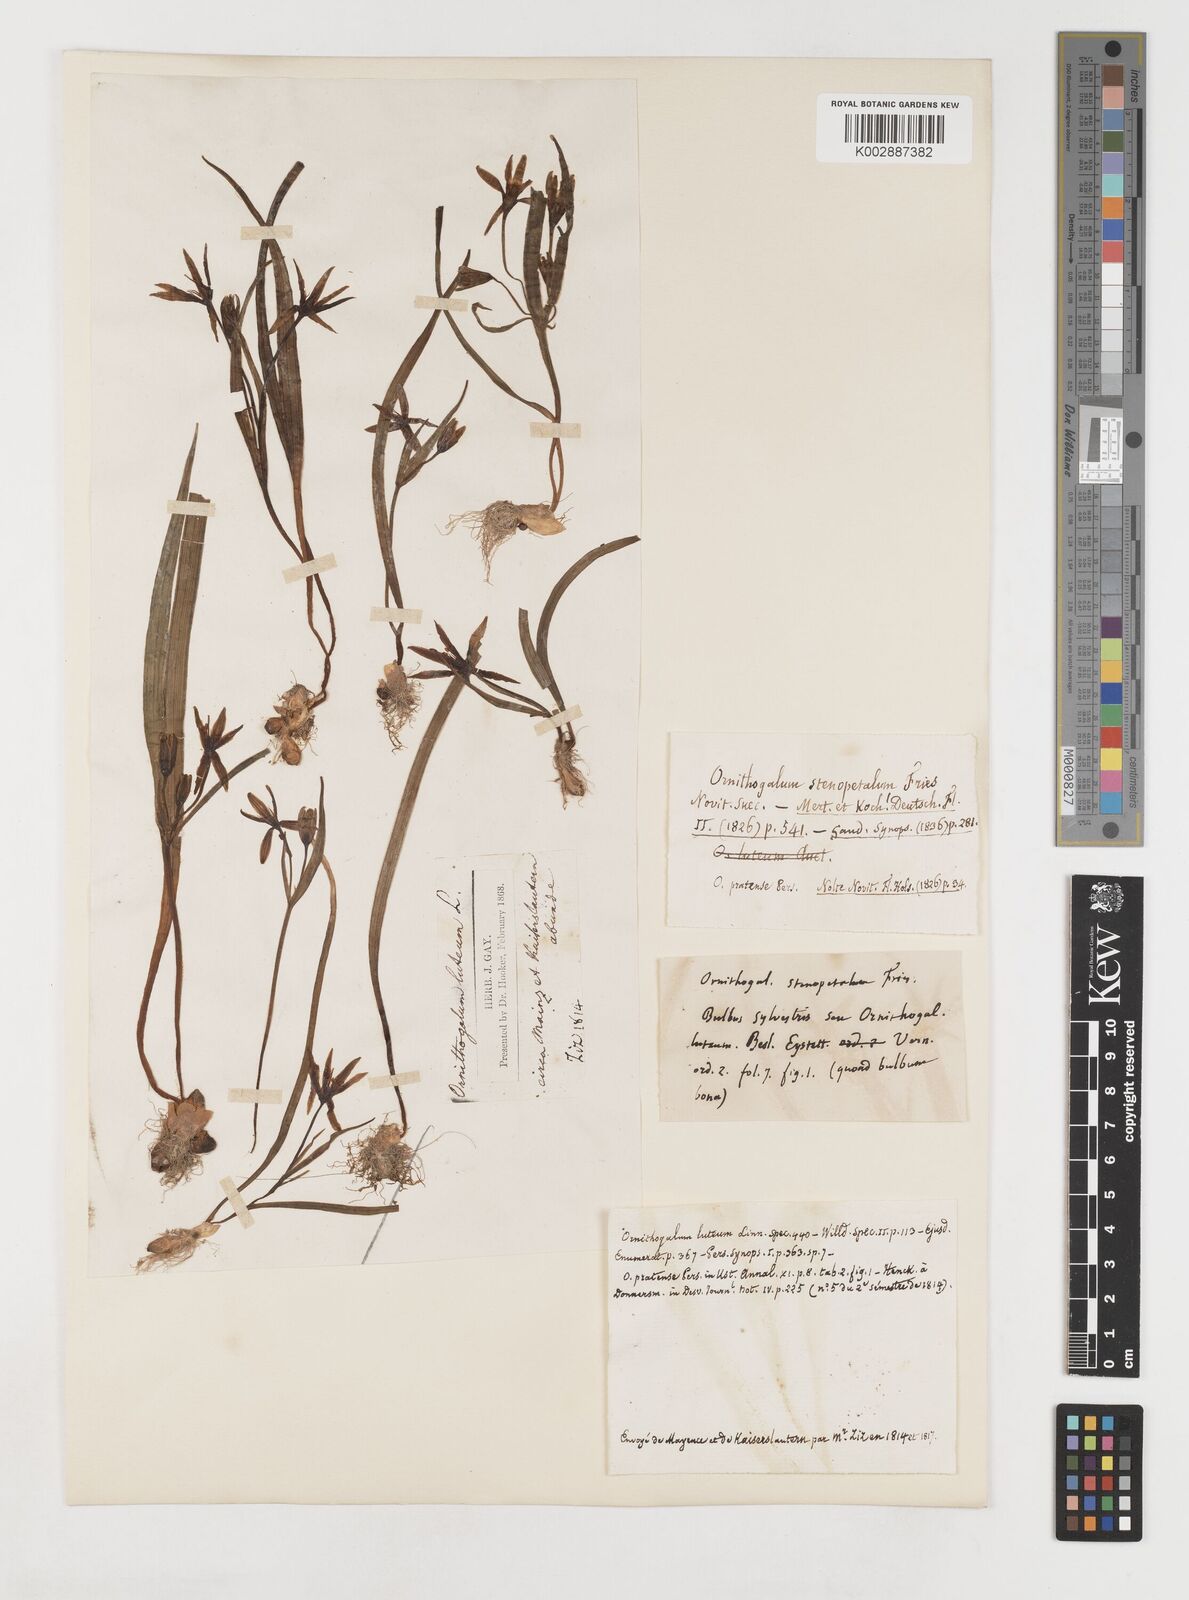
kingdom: Plantae
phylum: Tracheophyta
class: Liliopsida
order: Liliales
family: Liliaceae
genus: Gagea
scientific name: Gagea pratensis
